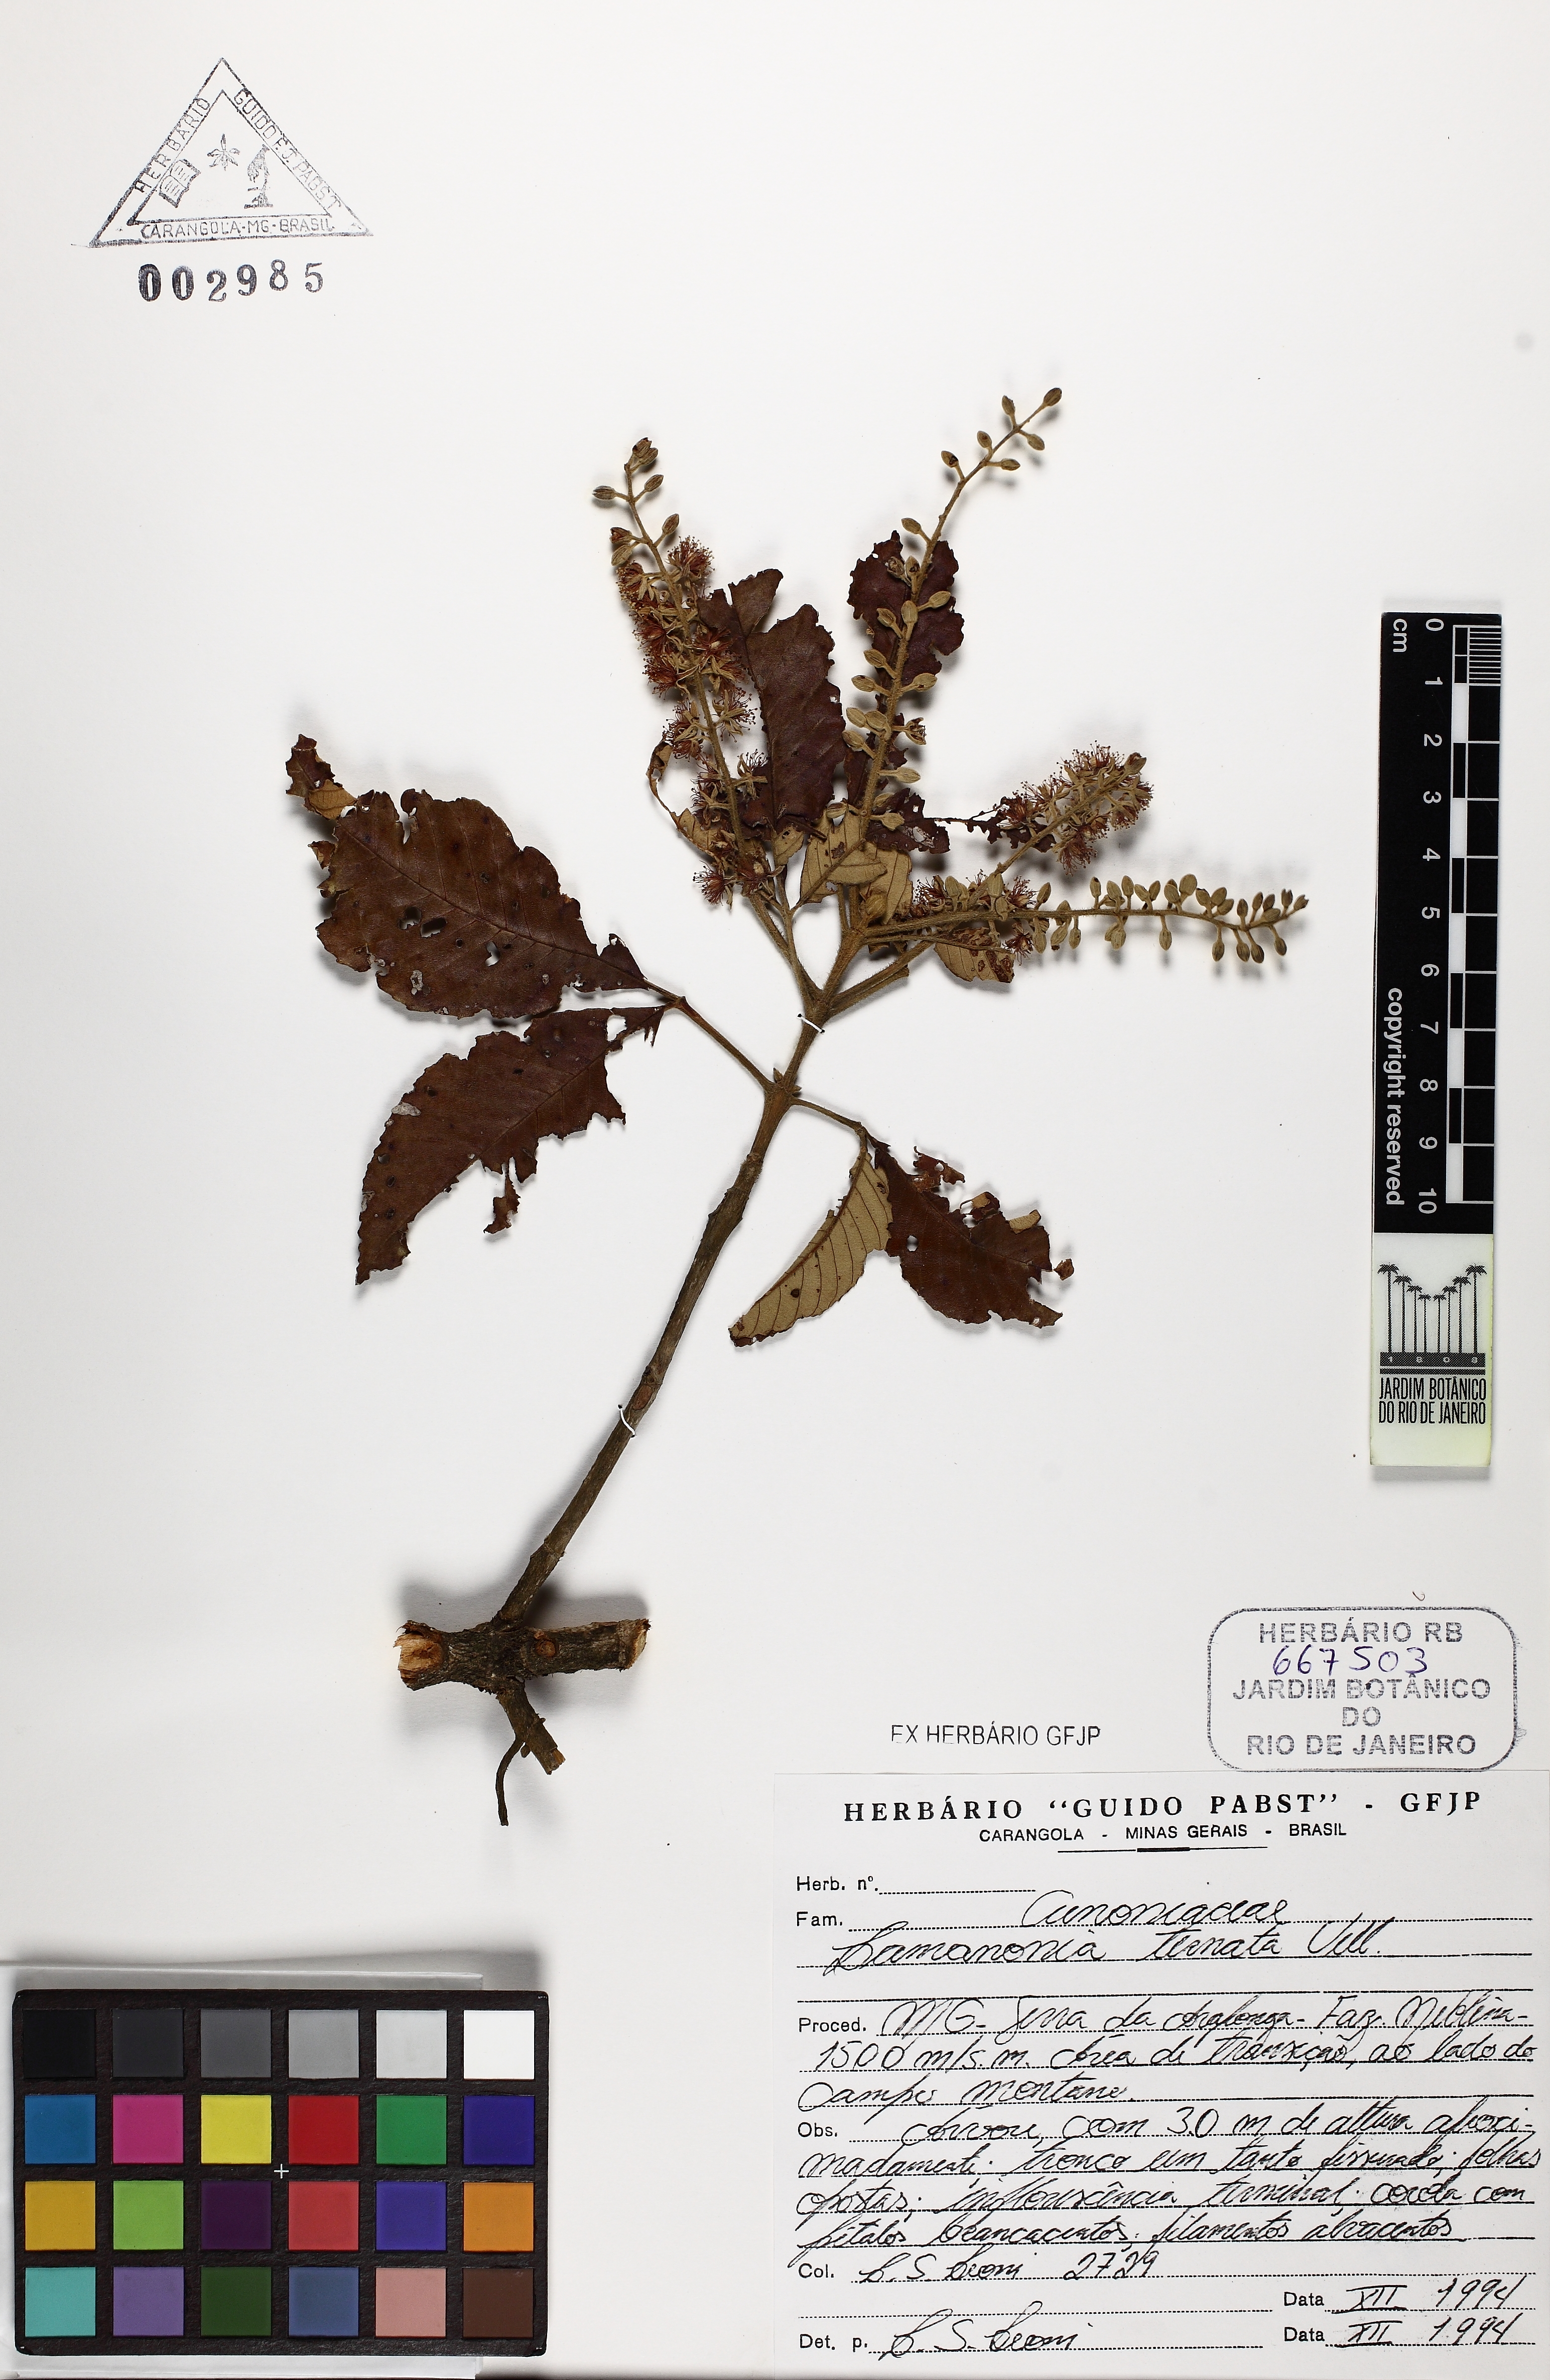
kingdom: Plantae
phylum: Tracheophyta
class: Magnoliopsida
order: Oxalidales
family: Cunoniaceae
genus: Lamanonia
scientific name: Lamanonia ternata
